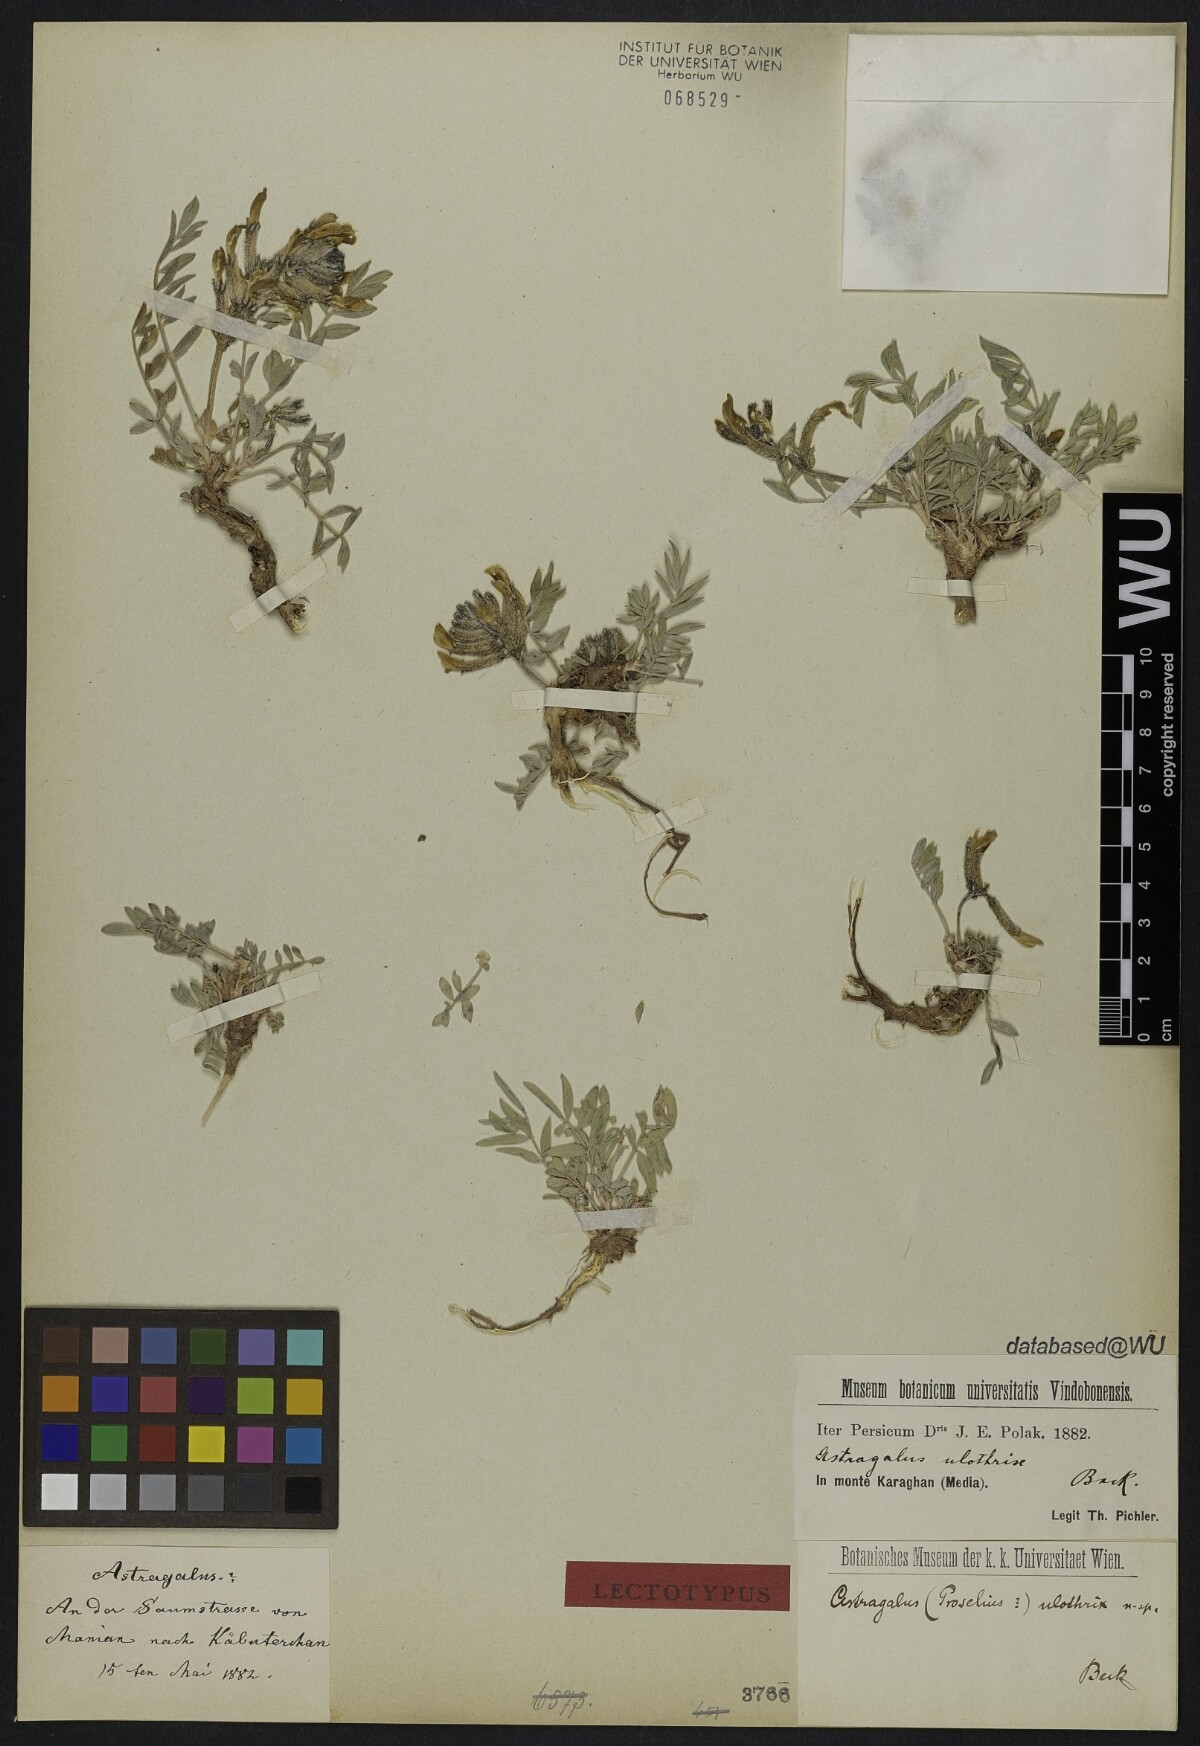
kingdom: Plantae
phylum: Tracheophyta
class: Magnoliopsida
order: Fabales
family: Fabaceae
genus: Astragalus
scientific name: Astragalus pentanthus
